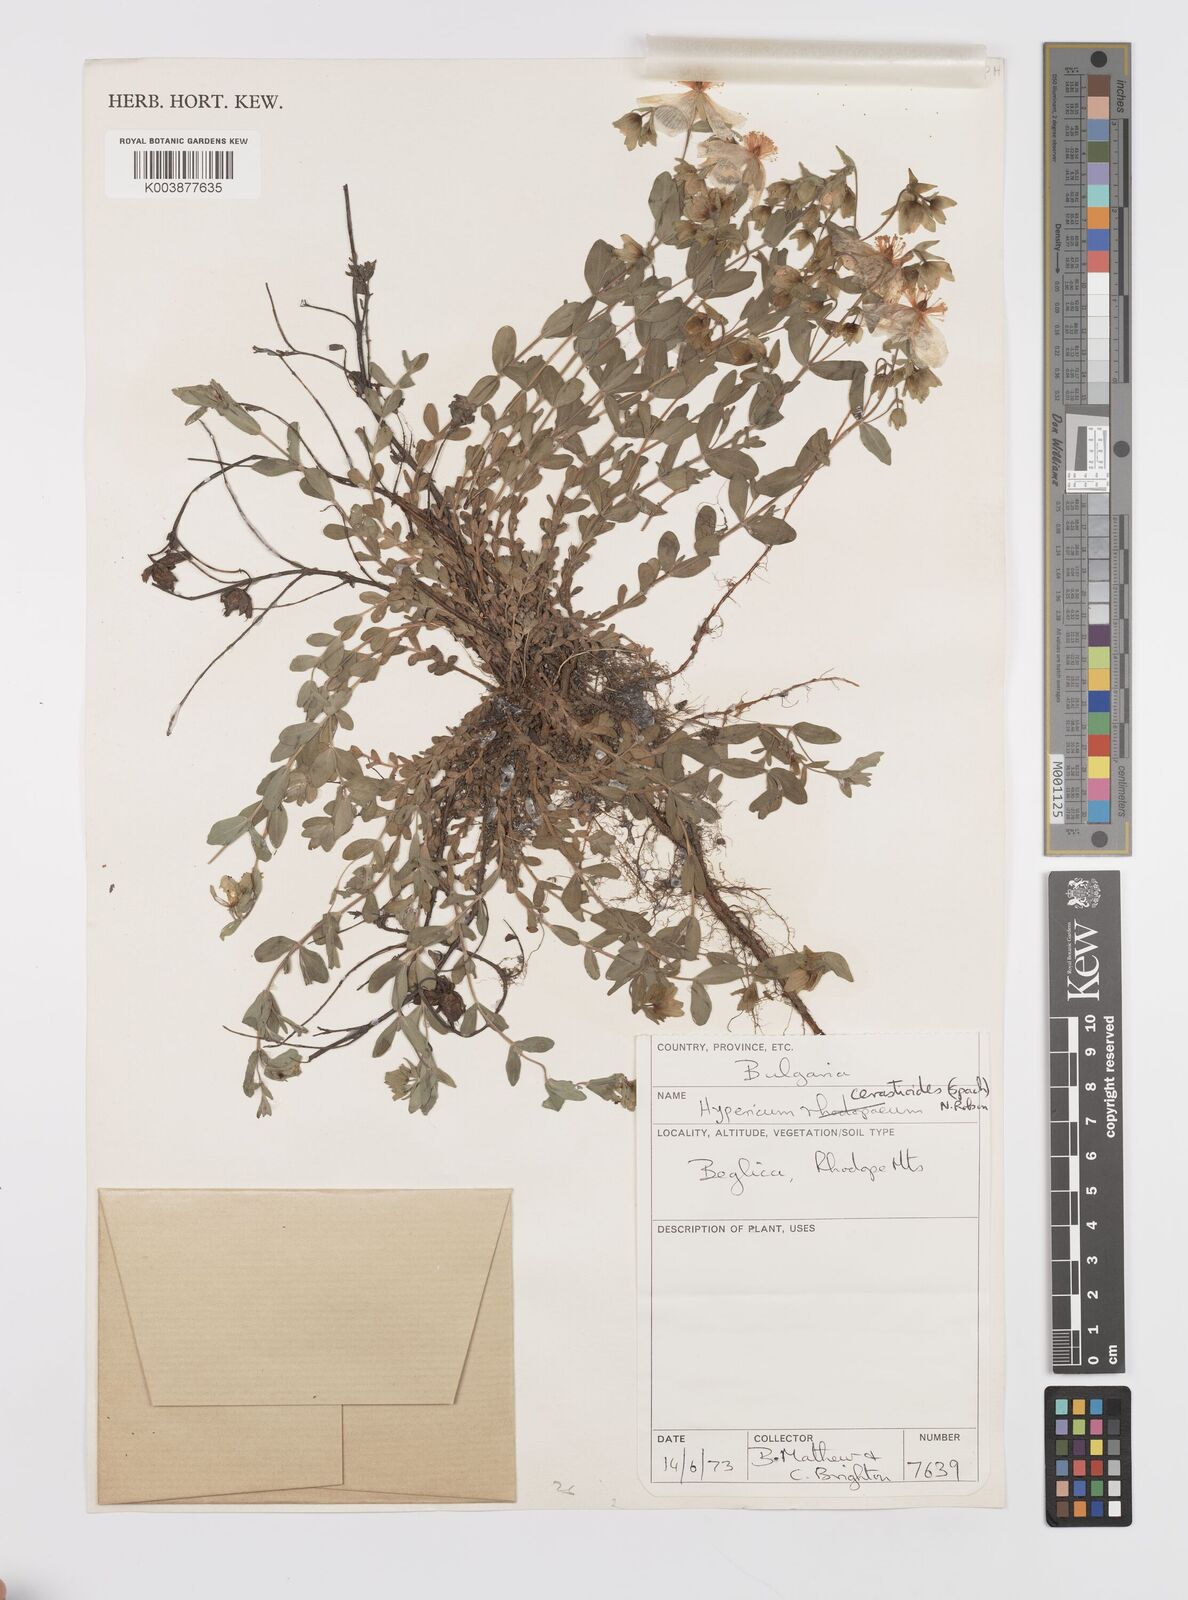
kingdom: Plantae
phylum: Tracheophyta
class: Magnoliopsida
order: Malpighiales
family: Hypericaceae
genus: Hypericum
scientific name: Hypericum cerastoides
